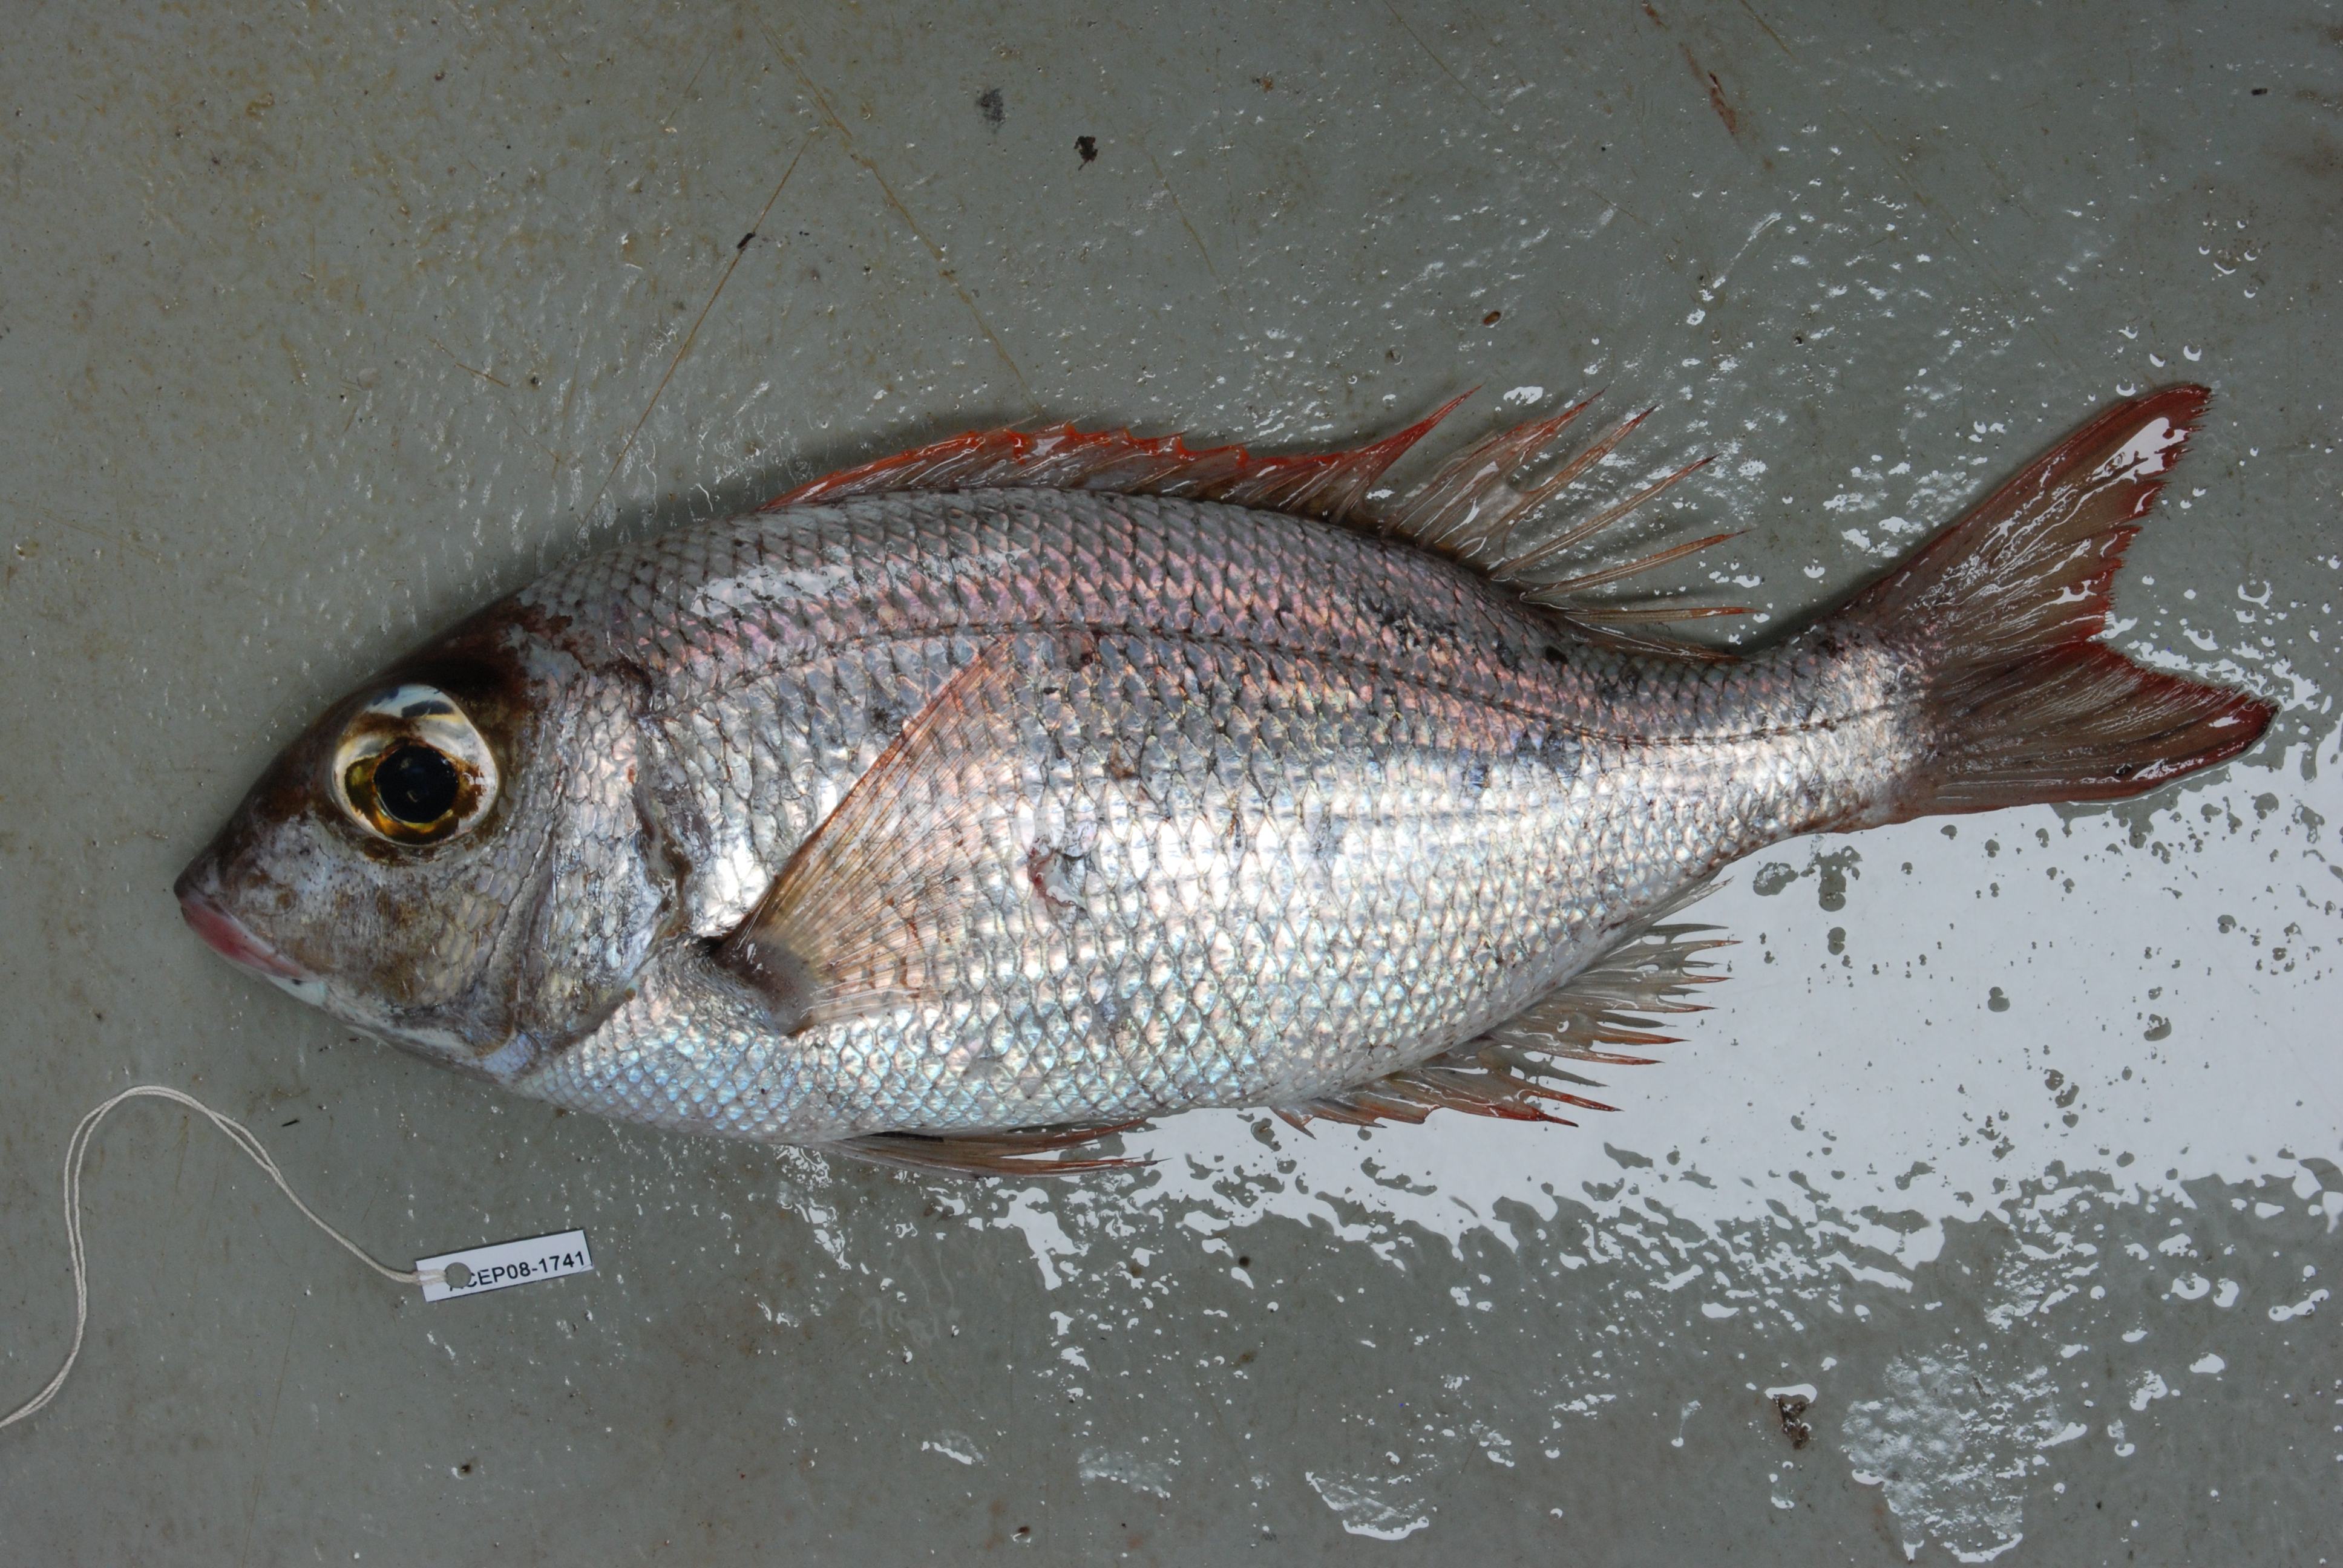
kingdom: Animalia
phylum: Chordata
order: Perciformes
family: Lethrinidae
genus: Gymnocranius
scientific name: Gymnocranius griseus
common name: Grey emperor
